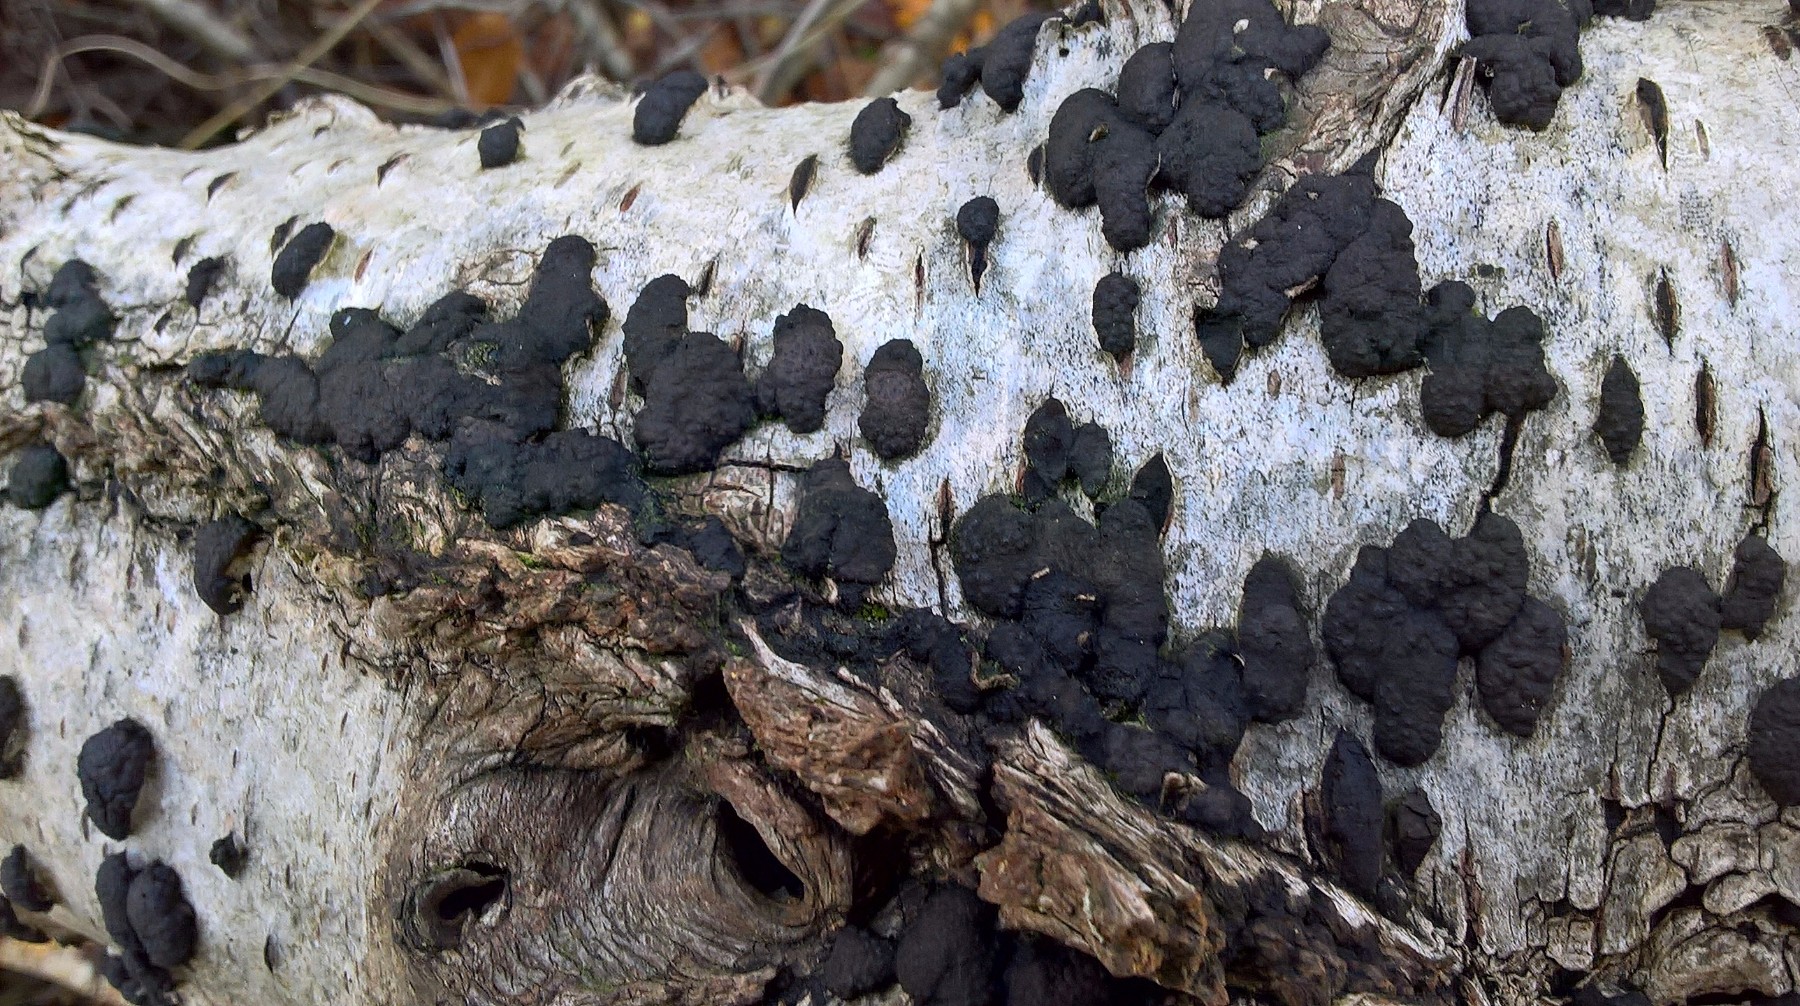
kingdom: Fungi
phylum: Ascomycota
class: Sordariomycetes
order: Xylariales
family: Hypoxylaceae
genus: Jackrogersella
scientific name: Jackrogersella multiformis
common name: foranderlig kulbær
